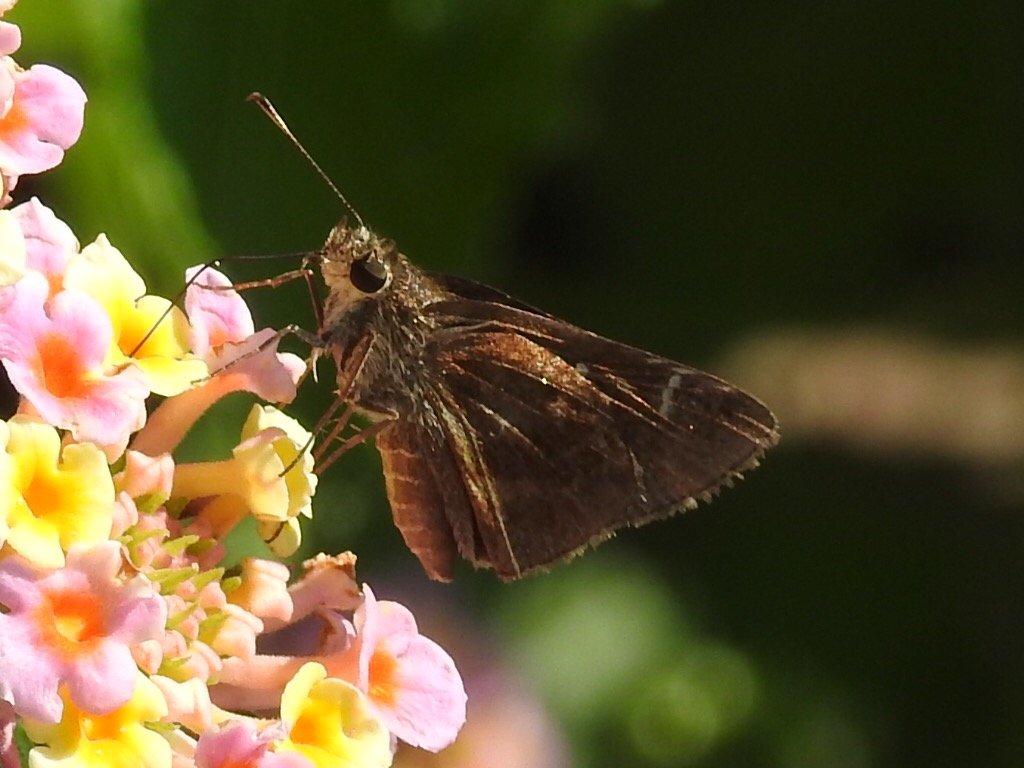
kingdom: Animalia
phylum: Arthropoda
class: Insecta
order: Lepidoptera
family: Hesperiidae
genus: Mastor
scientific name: Mastor aenus
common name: Bronze Roadside-Skipper
